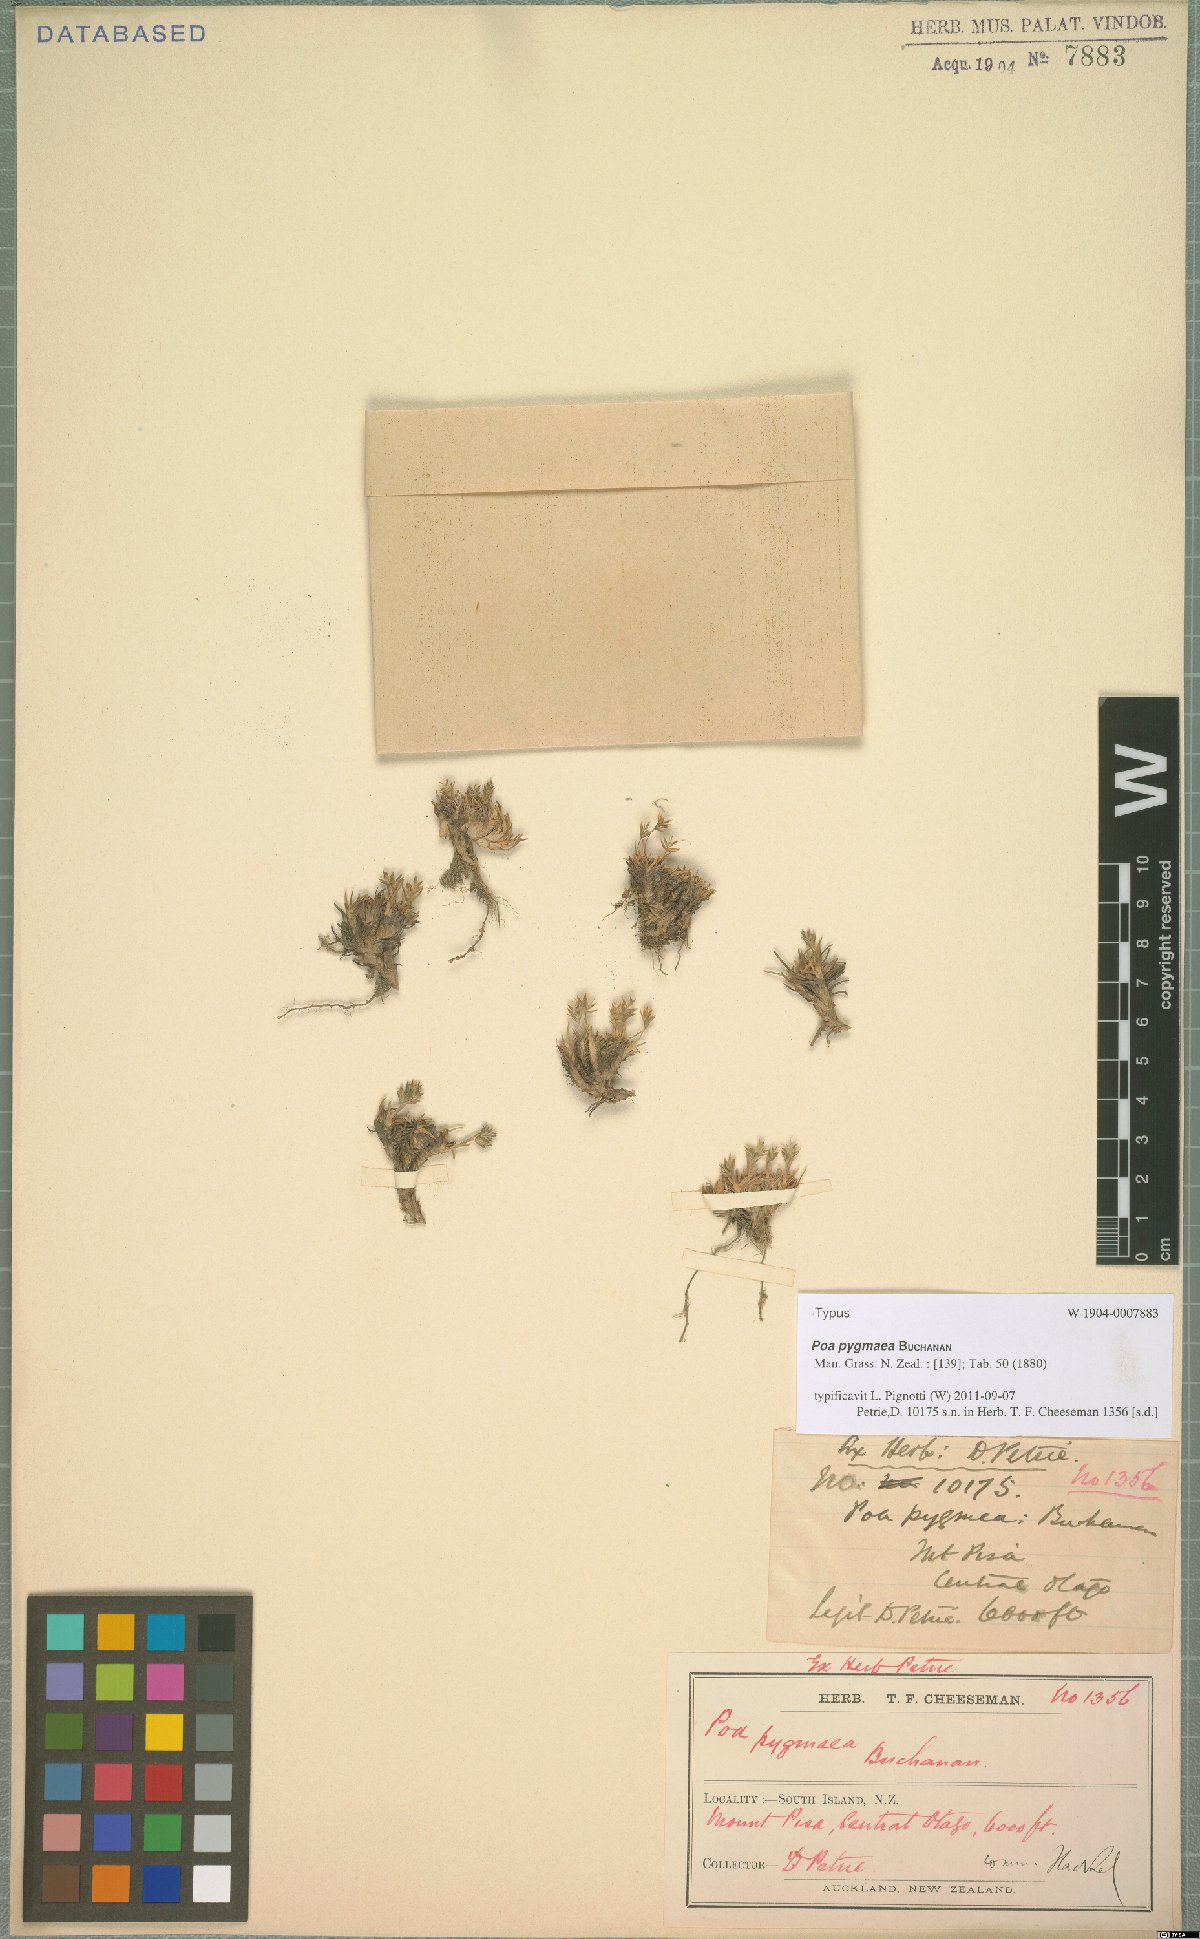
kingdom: Plantae
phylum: Tracheophyta
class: Liliopsida
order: Poales
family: Poaceae
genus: Poa
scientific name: Poa pygmaea
